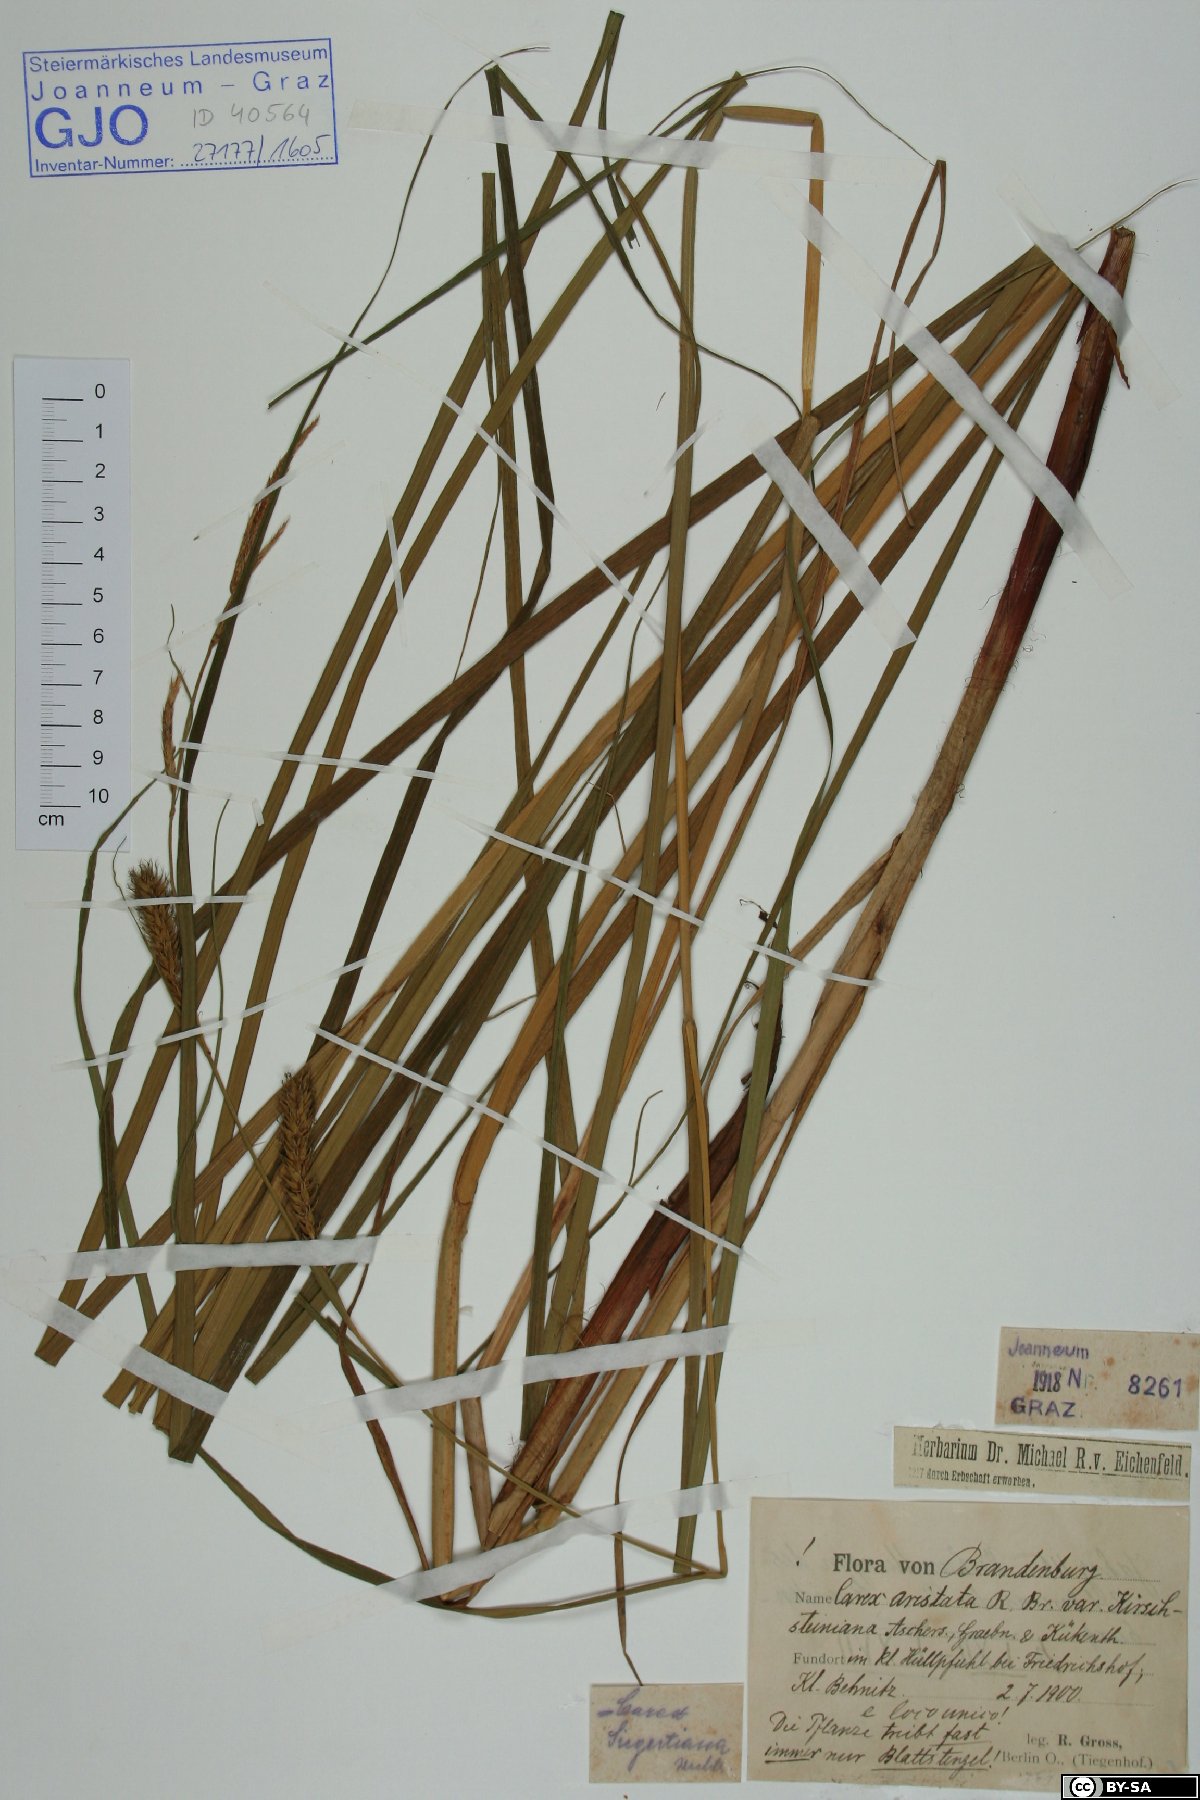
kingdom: Plantae
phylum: Tracheophyta
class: Liliopsida
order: Poales
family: Cyperaceae
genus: Carex
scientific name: Carex atherodes
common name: Wheat sedge
